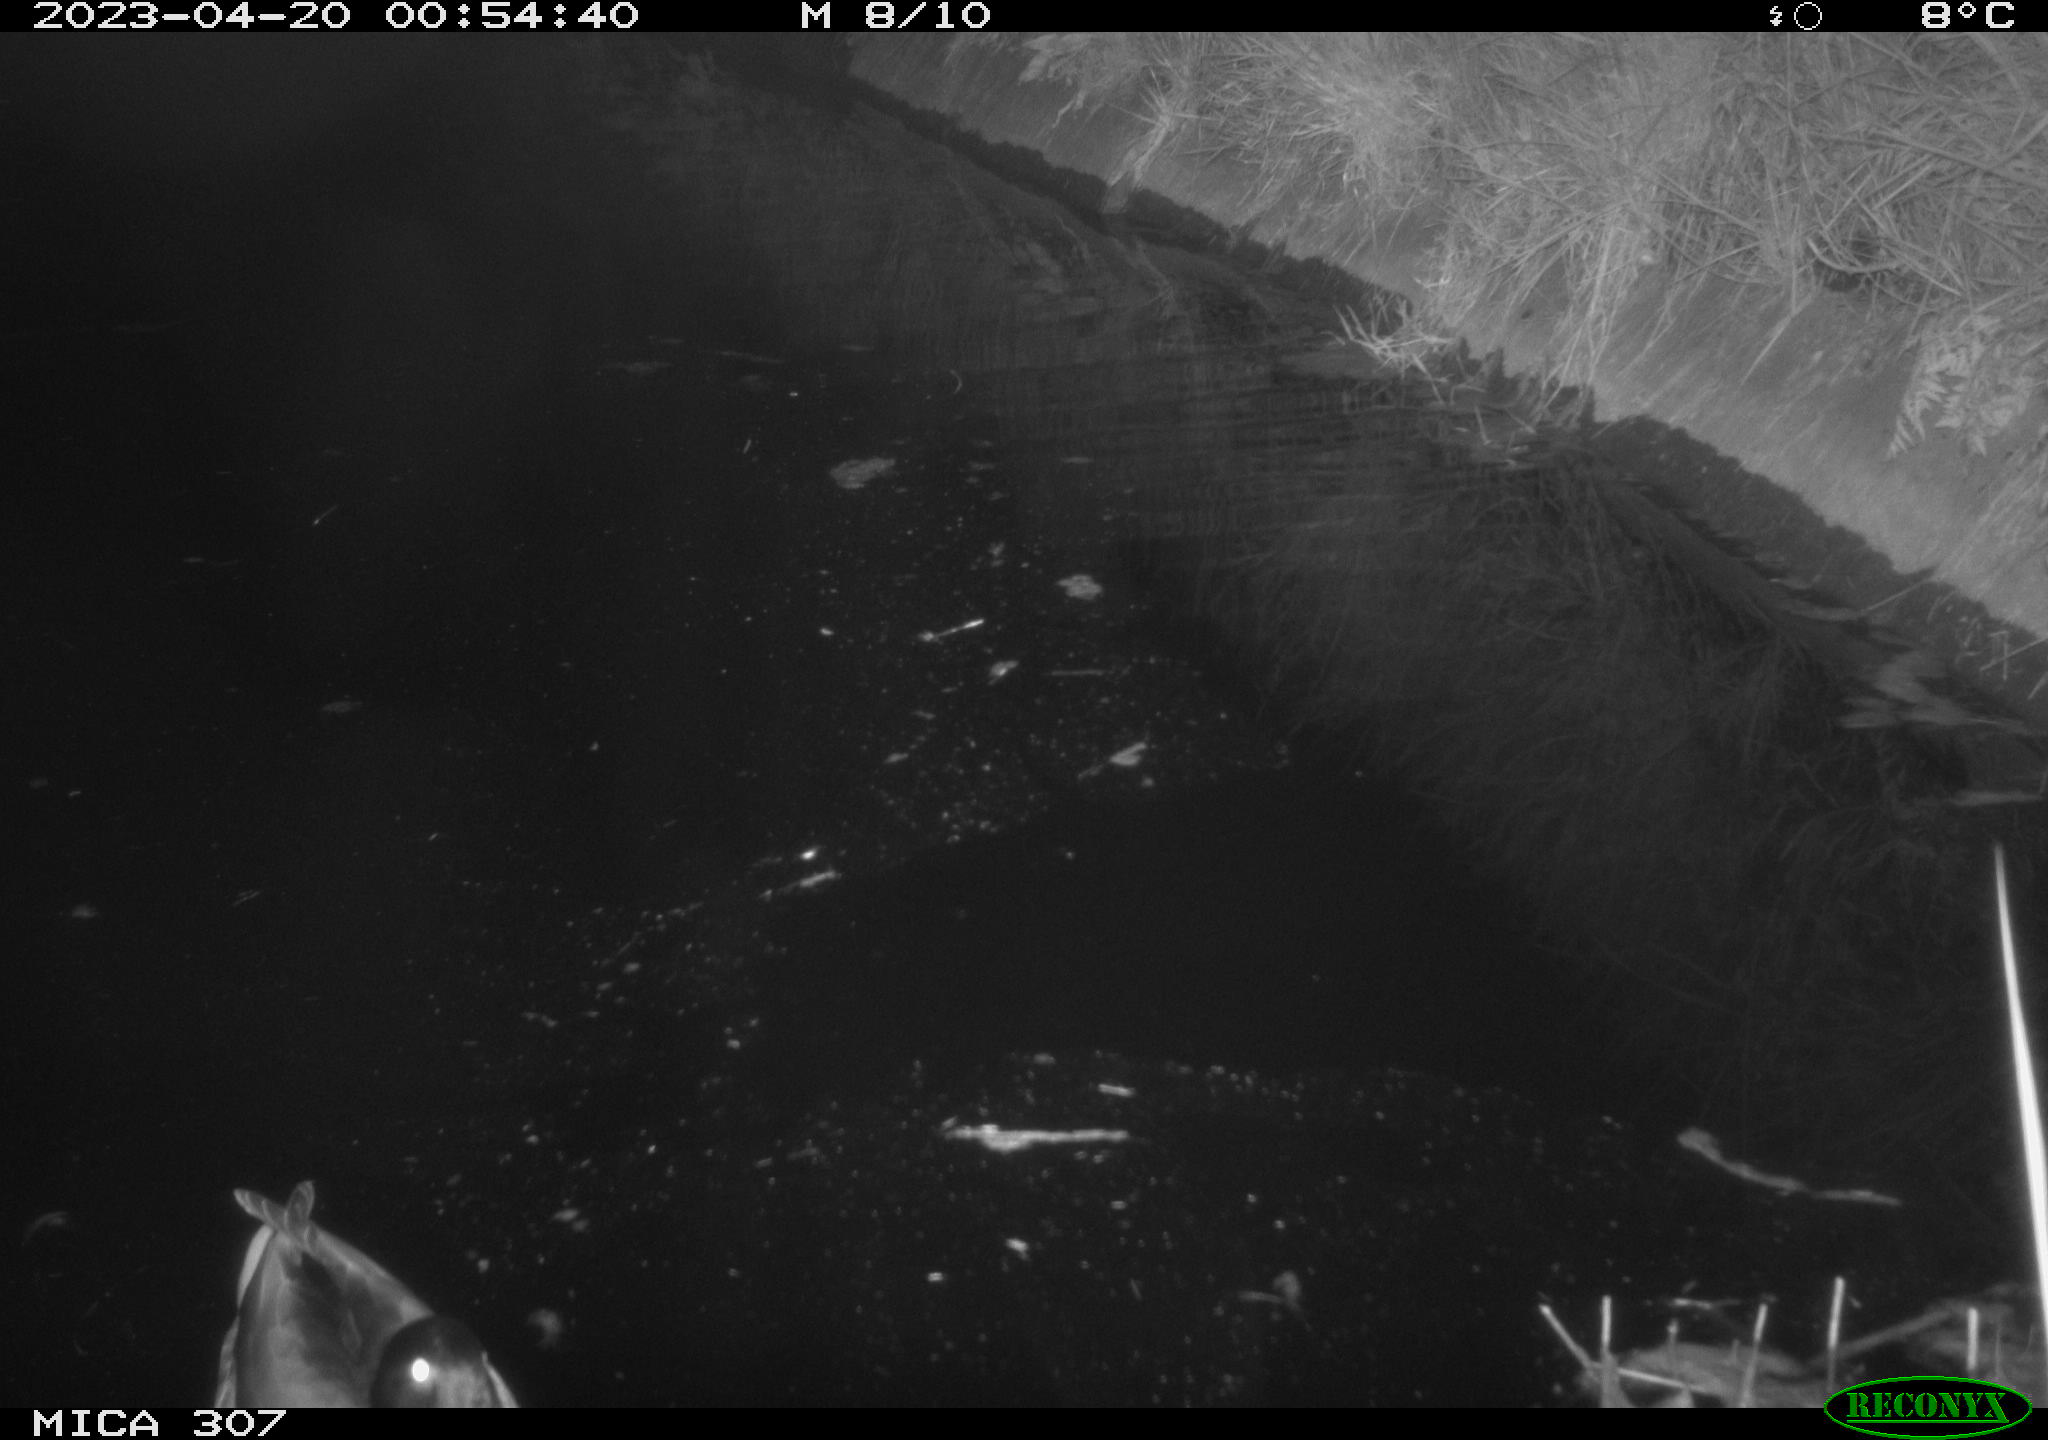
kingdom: Animalia
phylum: Chordata
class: Aves
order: Anseriformes
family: Anatidae
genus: Anas
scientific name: Anas
